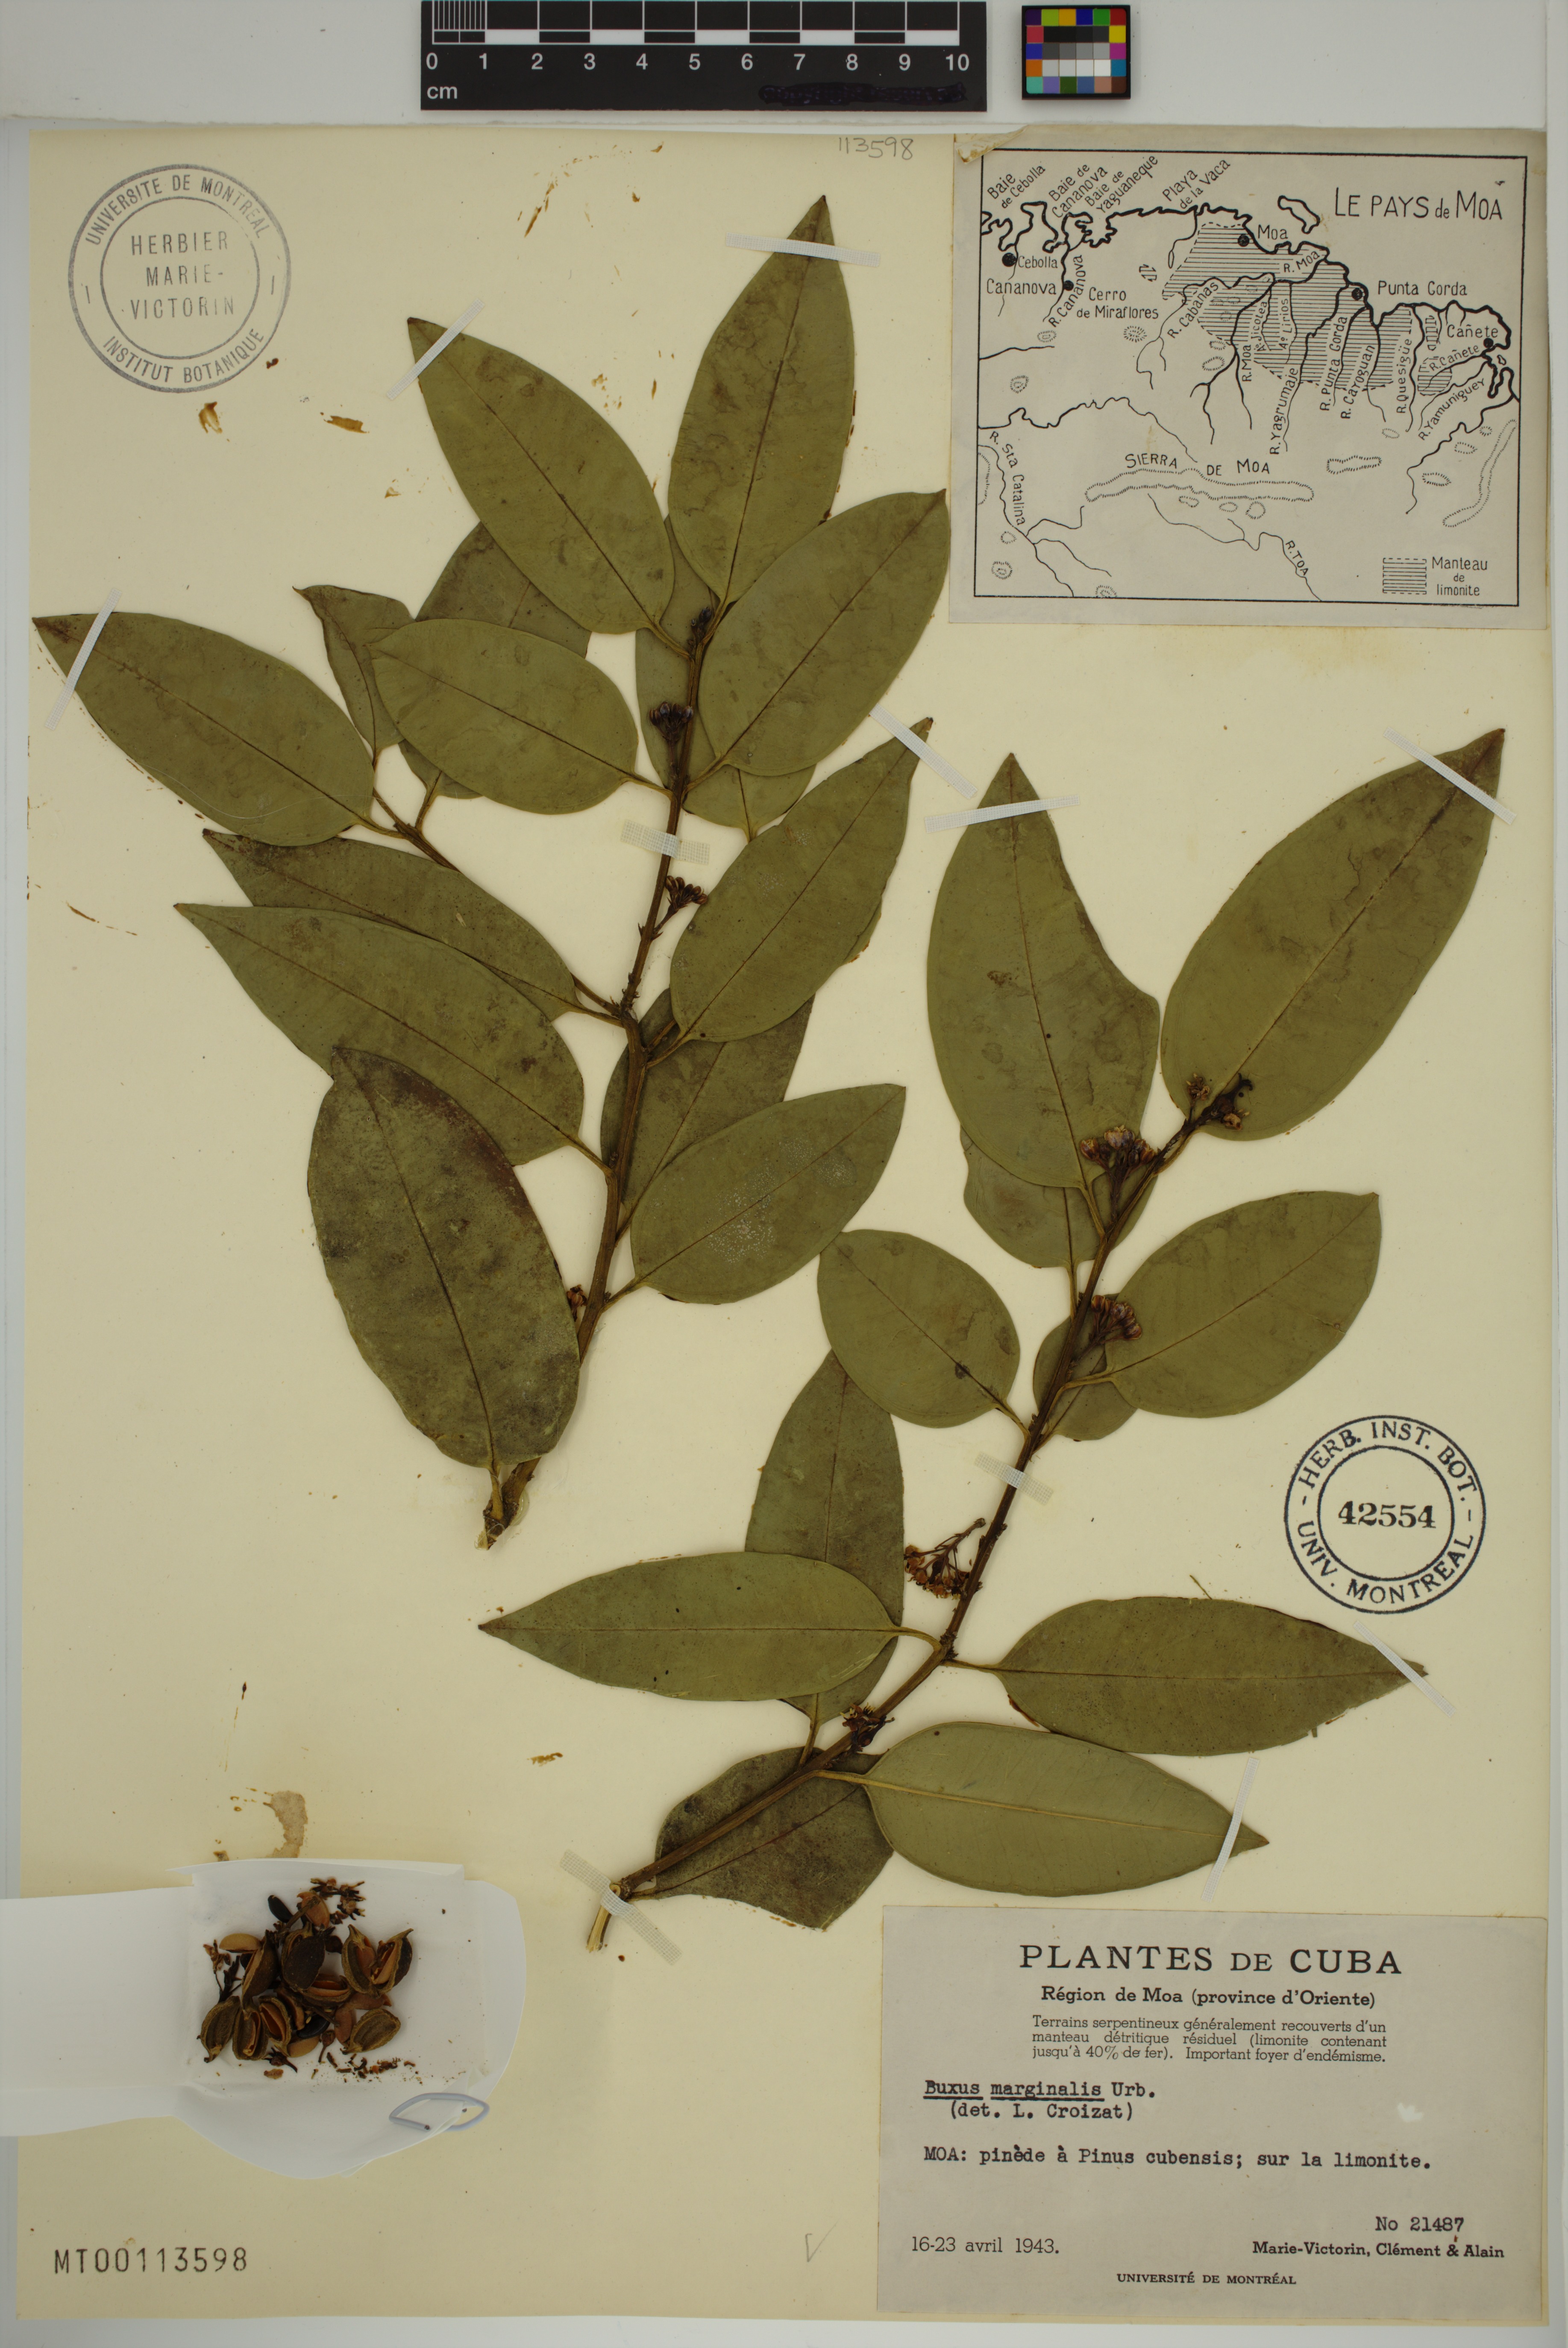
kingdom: Plantae
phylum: Tracheophyta
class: Magnoliopsida
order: Buxales
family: Buxaceae
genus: Buxus
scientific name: Buxus marginalis
